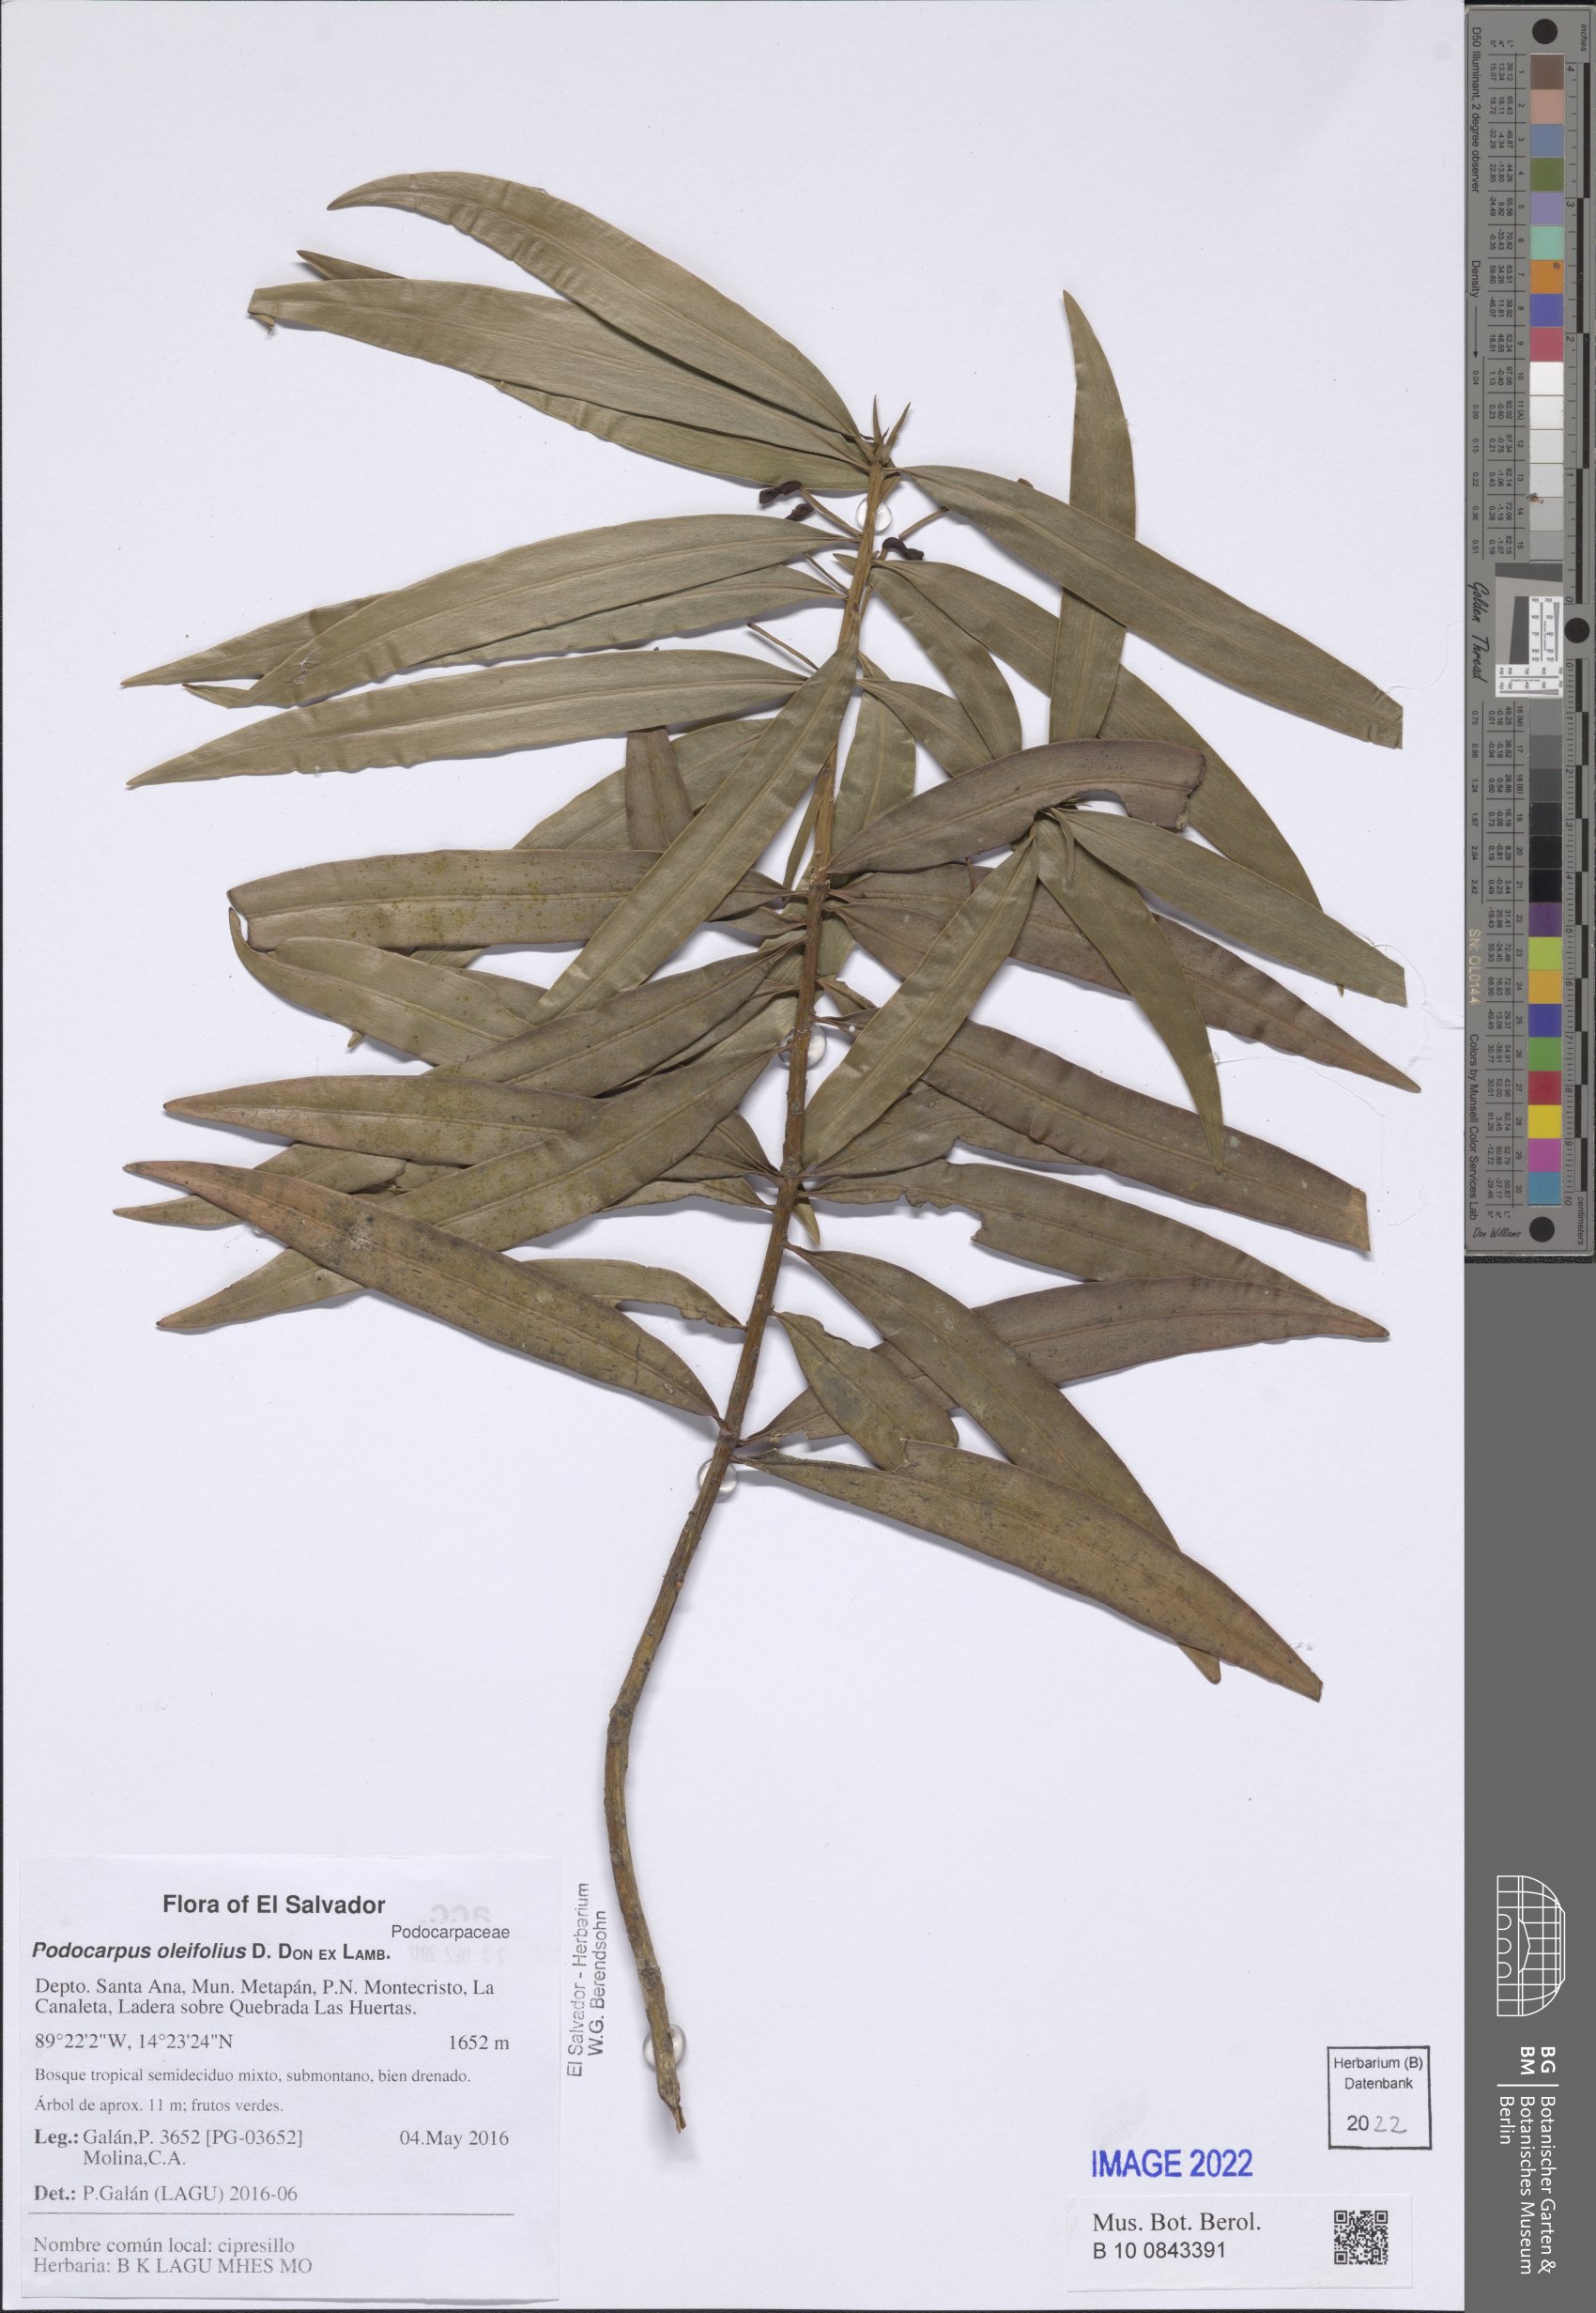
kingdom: Plantae
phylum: Tracheophyta
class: Pinopsida
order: Pinales
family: Podocarpaceae
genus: Podocarpus
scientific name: Podocarpus oleifolius
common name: Olive-leaf podoberry
